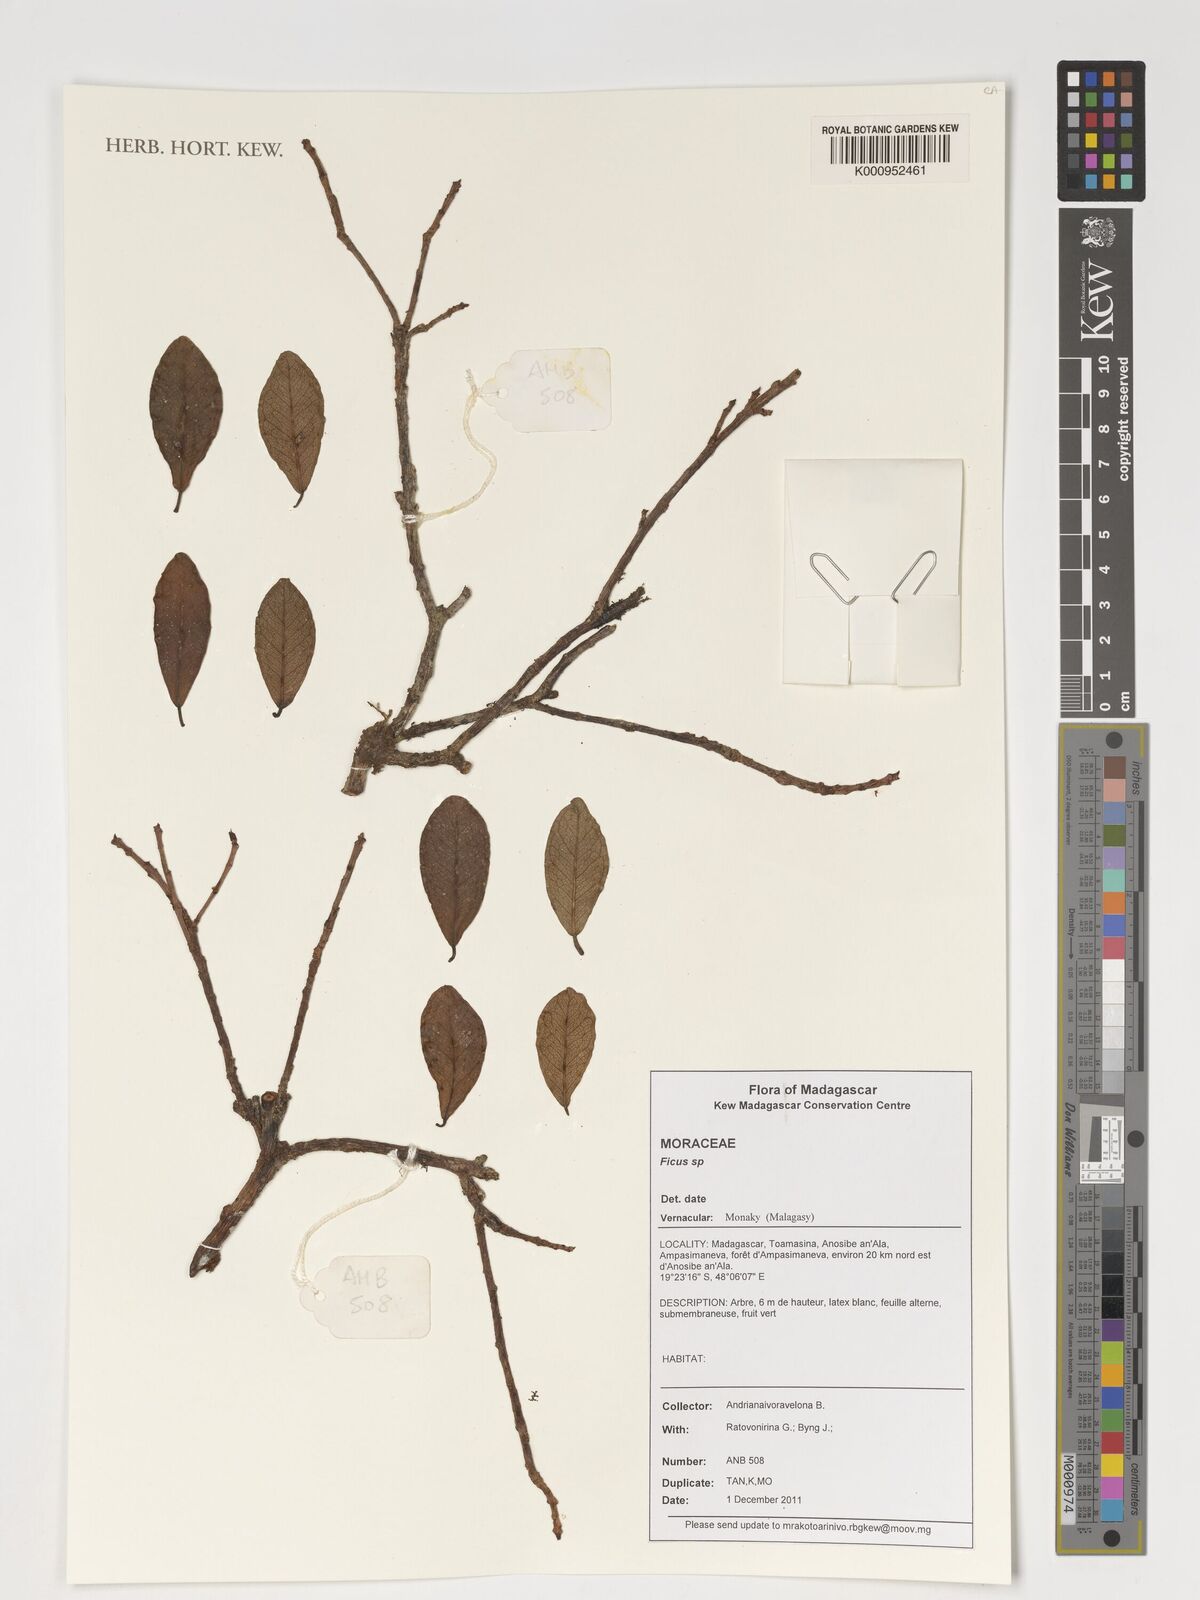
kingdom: Plantae
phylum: Tracheophyta
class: Magnoliopsida
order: Rosales
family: Moraceae
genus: Ficus
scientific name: Ficus
